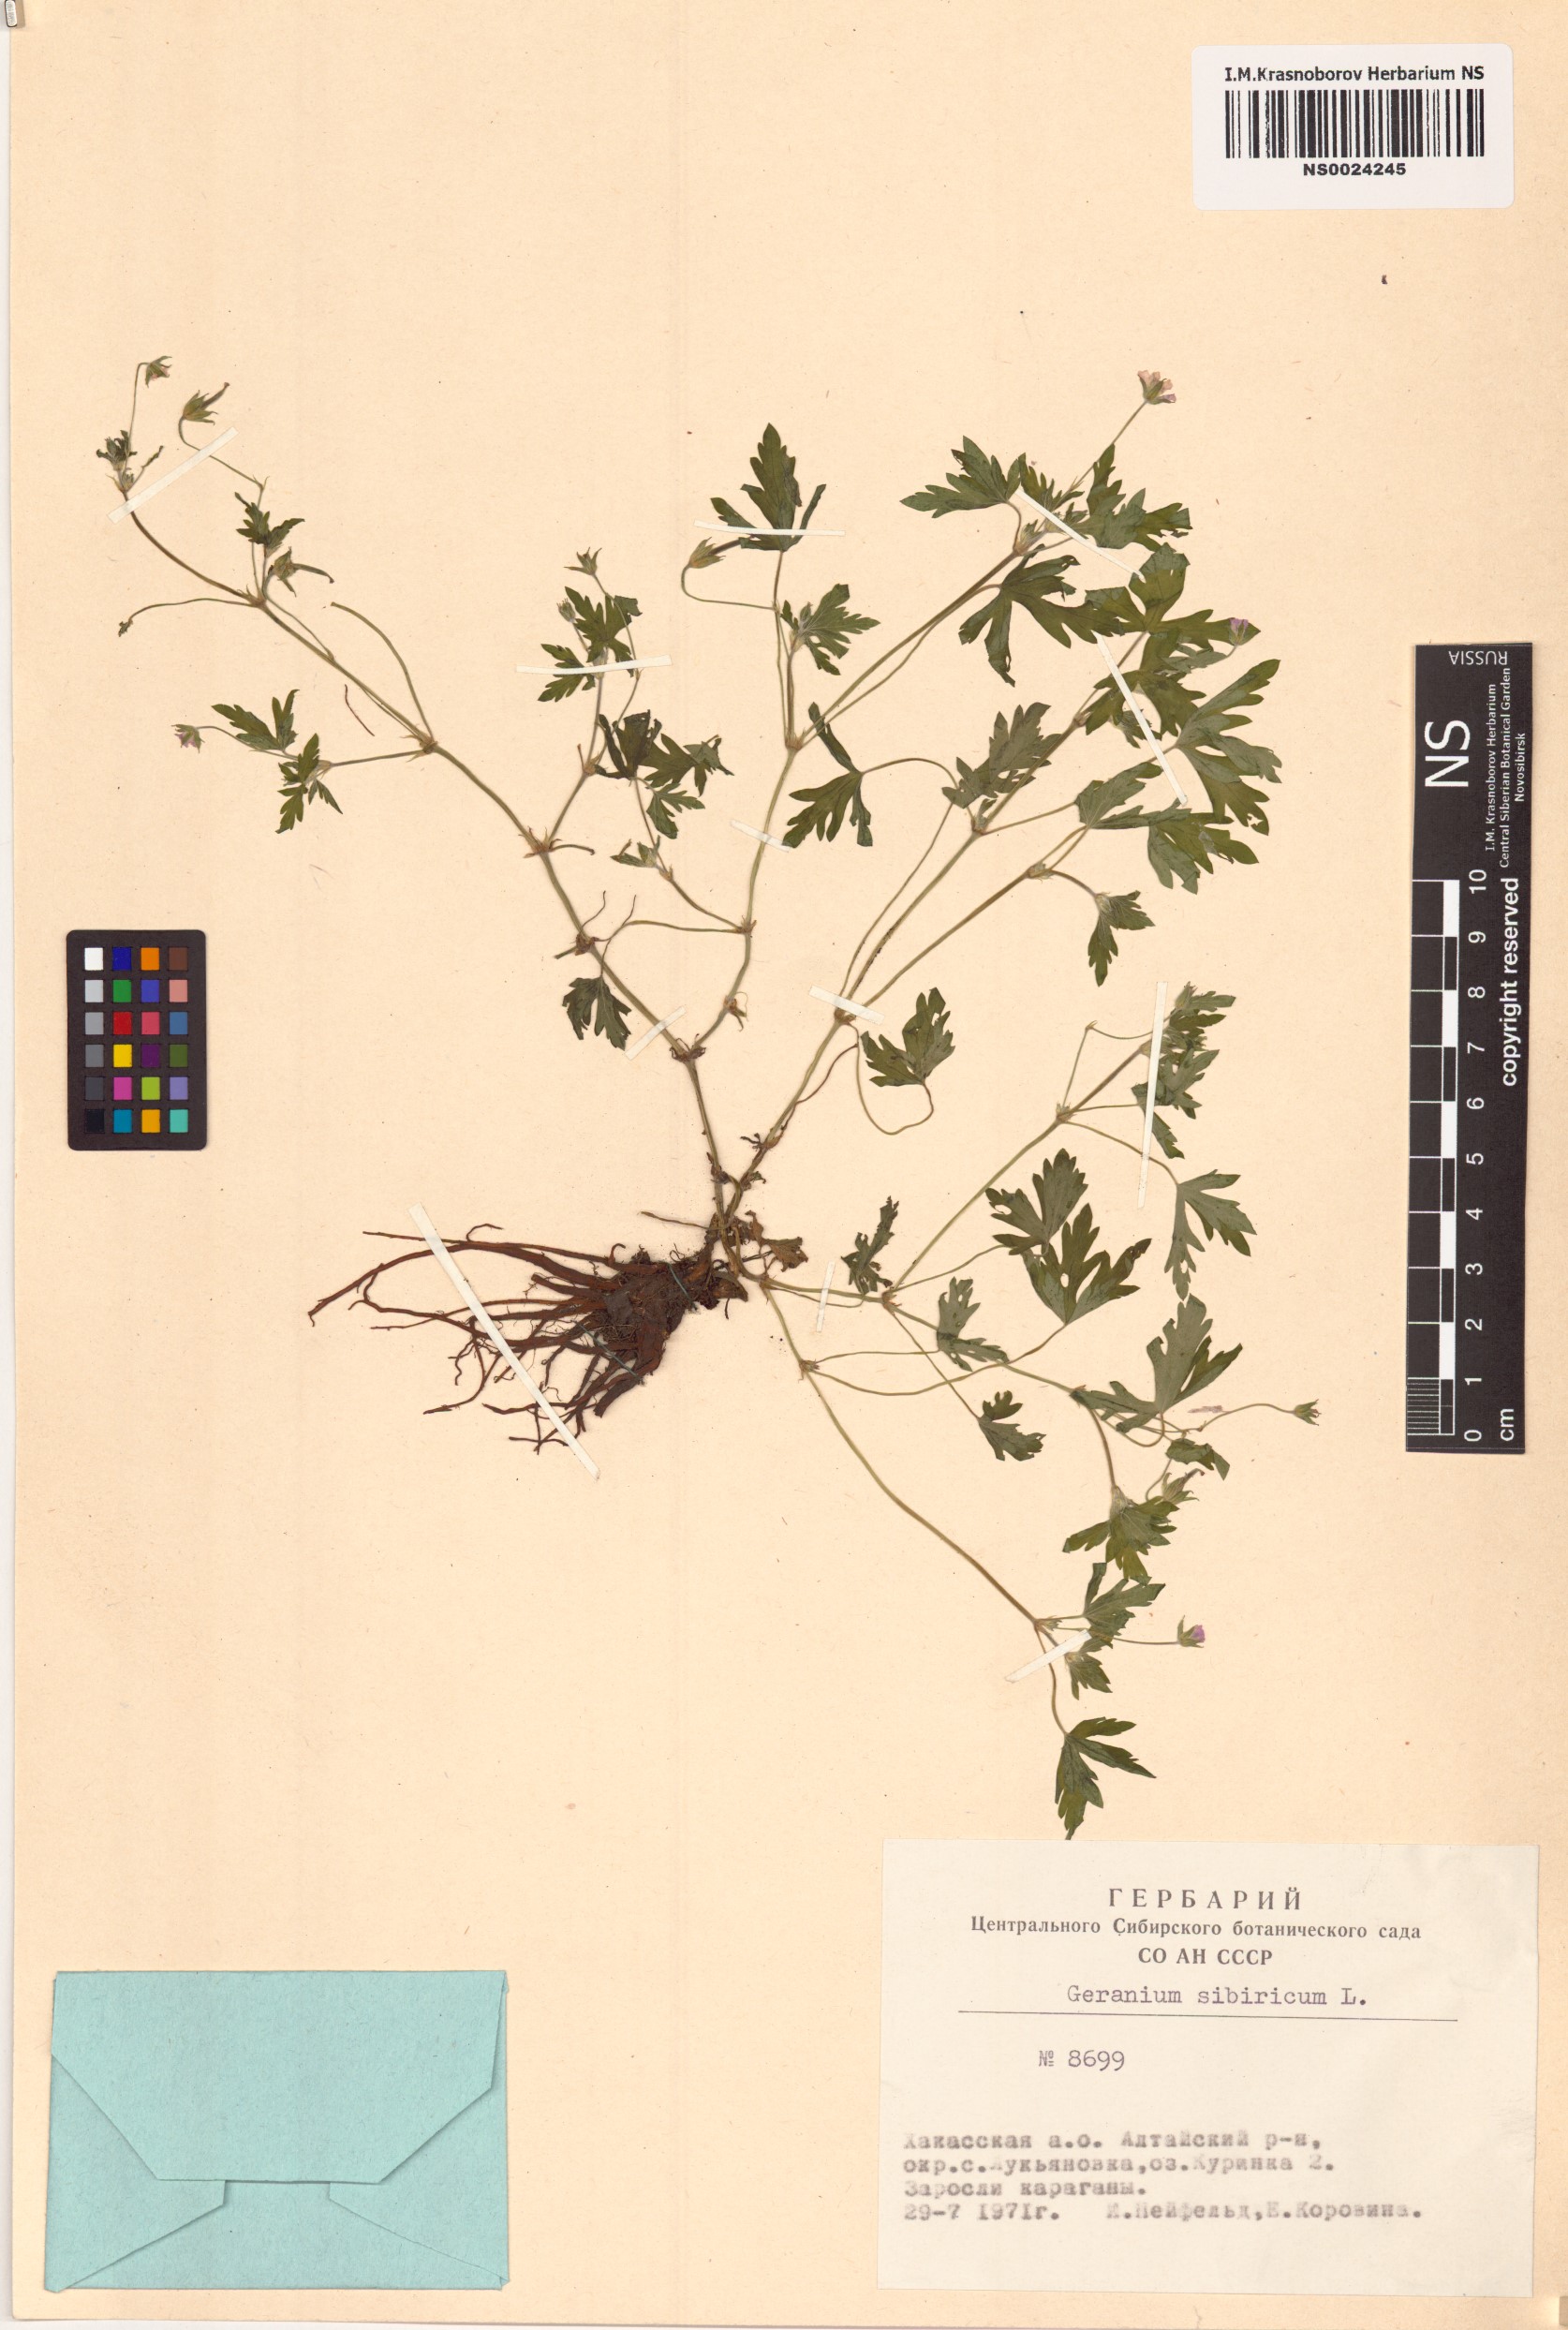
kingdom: Plantae
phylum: Tracheophyta
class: Magnoliopsida
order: Geraniales
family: Geraniaceae
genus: Geranium
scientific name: Geranium sibiricum
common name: Siberian crane's-bill
